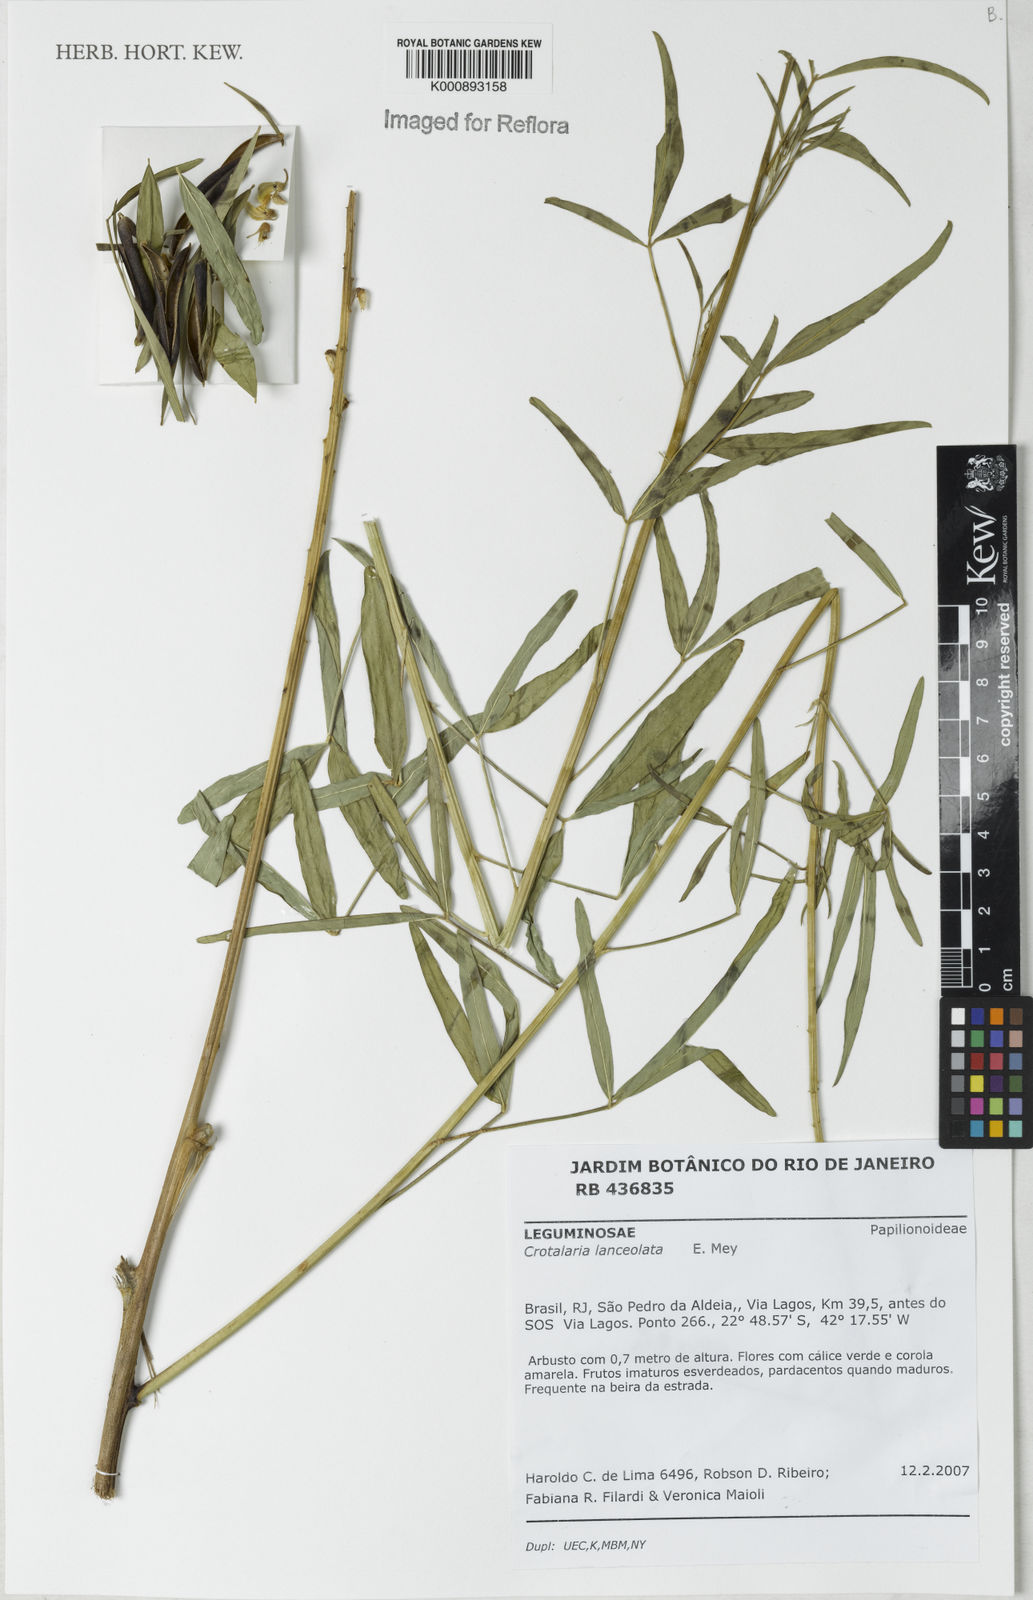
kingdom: Plantae
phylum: Tracheophyta
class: Magnoliopsida
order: Fabales
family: Fabaceae
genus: Crotalaria
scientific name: Crotalaria lanceolata
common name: Lanceleaf rattlebox
